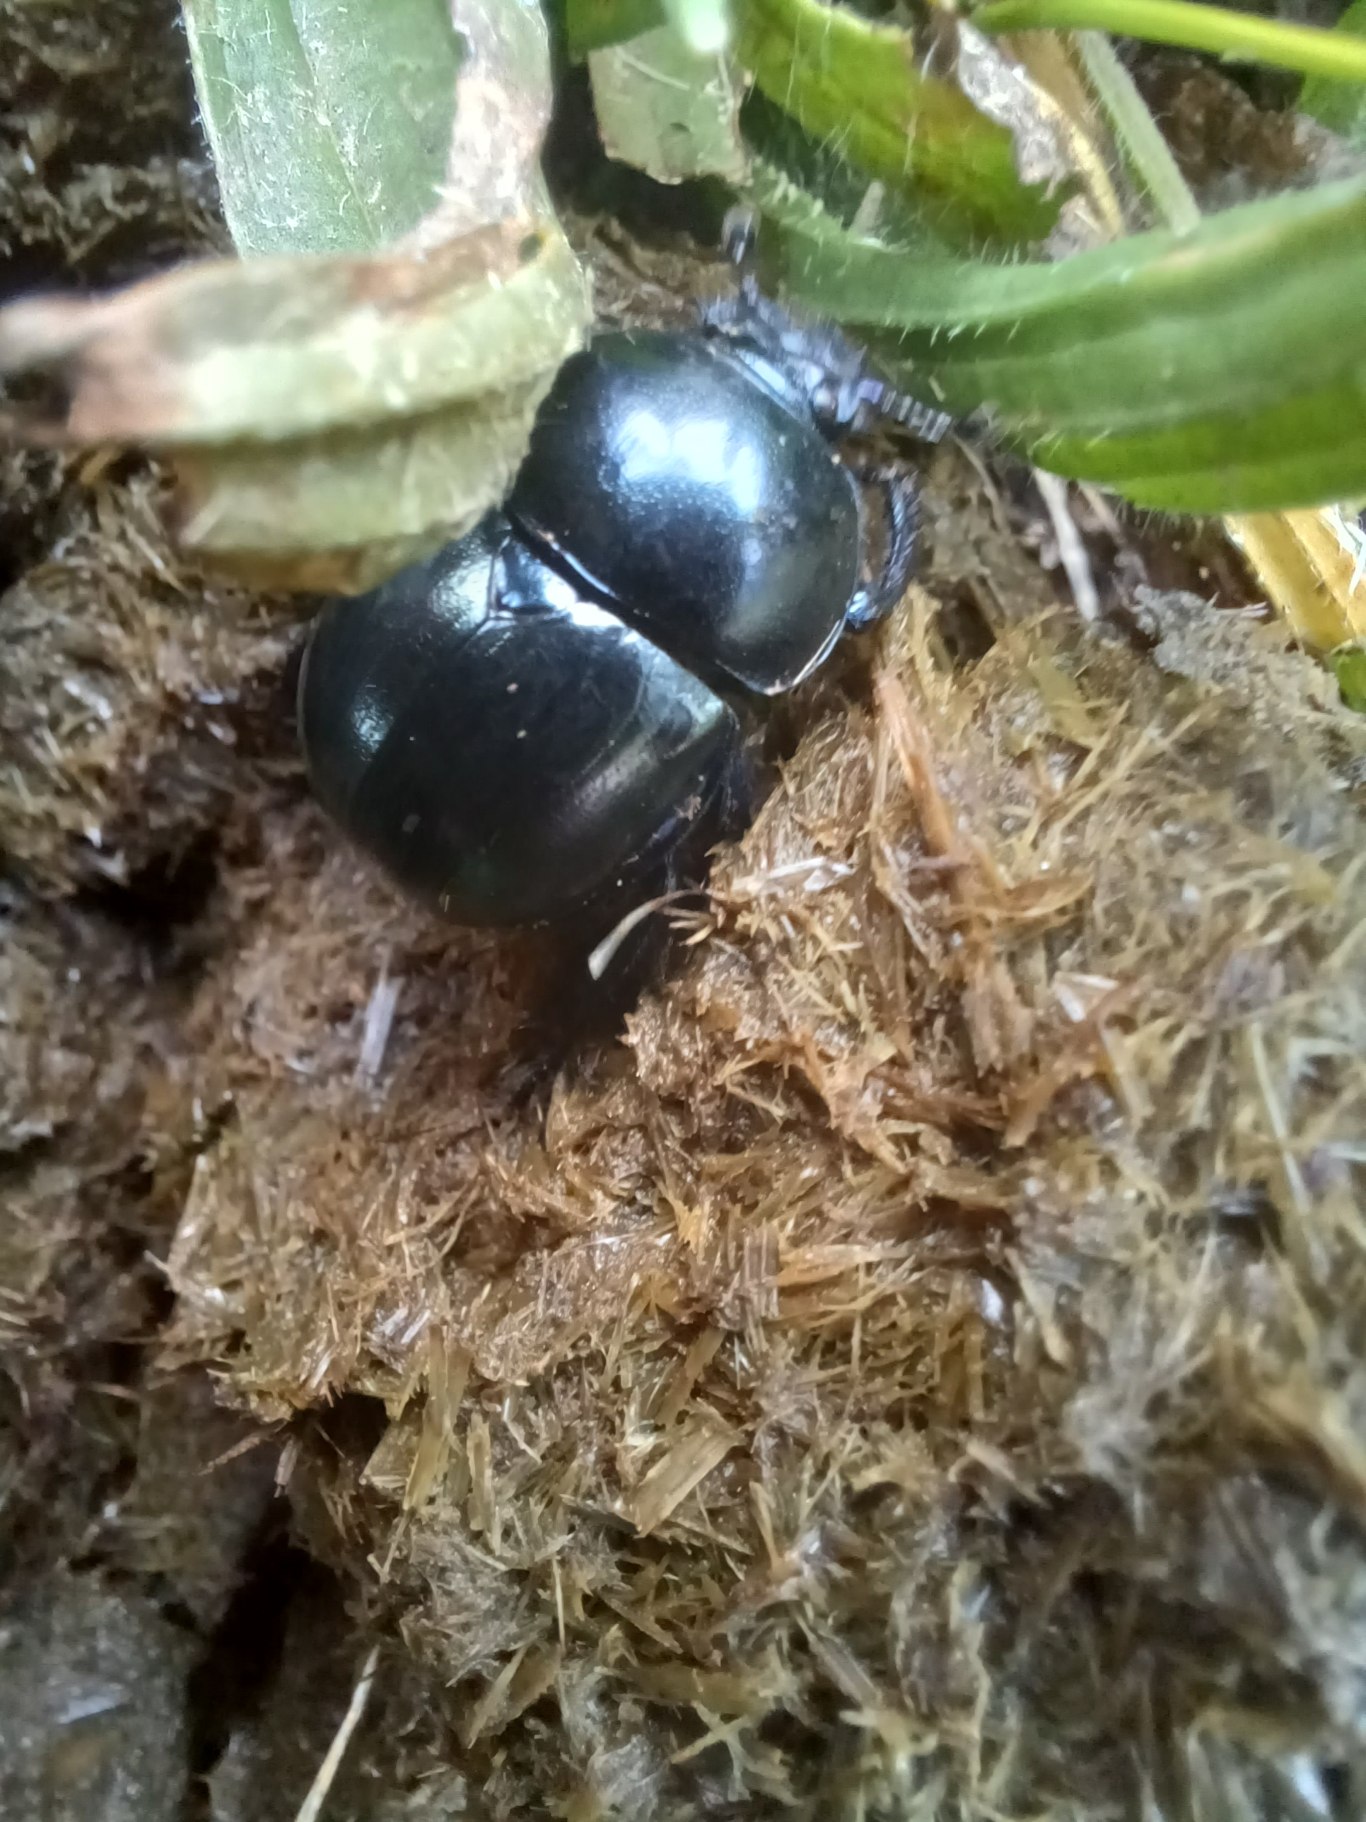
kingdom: Animalia
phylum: Arthropoda
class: Insecta
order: Coleoptera
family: Geotrupidae
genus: Trypocopris
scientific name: Trypocopris vernalis
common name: Glat skarnbasse
